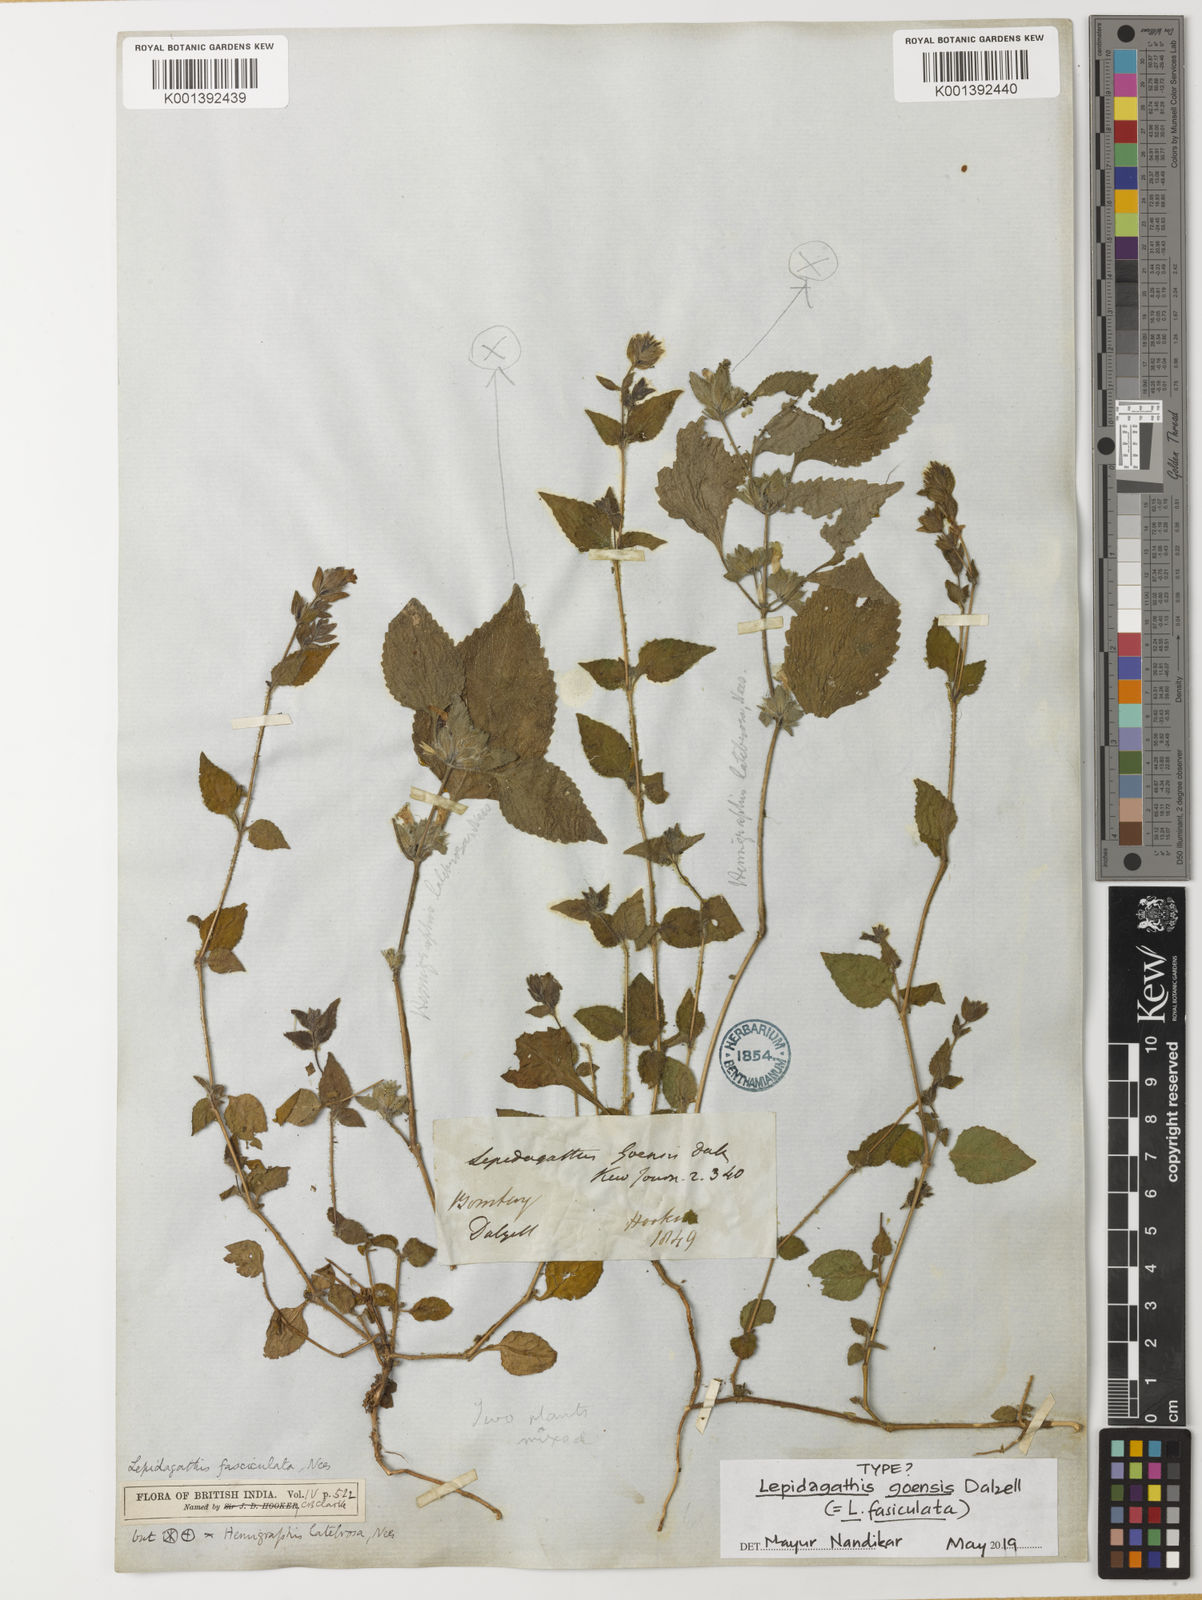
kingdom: Plantae
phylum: Tracheophyta
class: Magnoliopsida
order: Lamiales
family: Acanthaceae
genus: Lepidagathis
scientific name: Lepidagathis fasciculata
